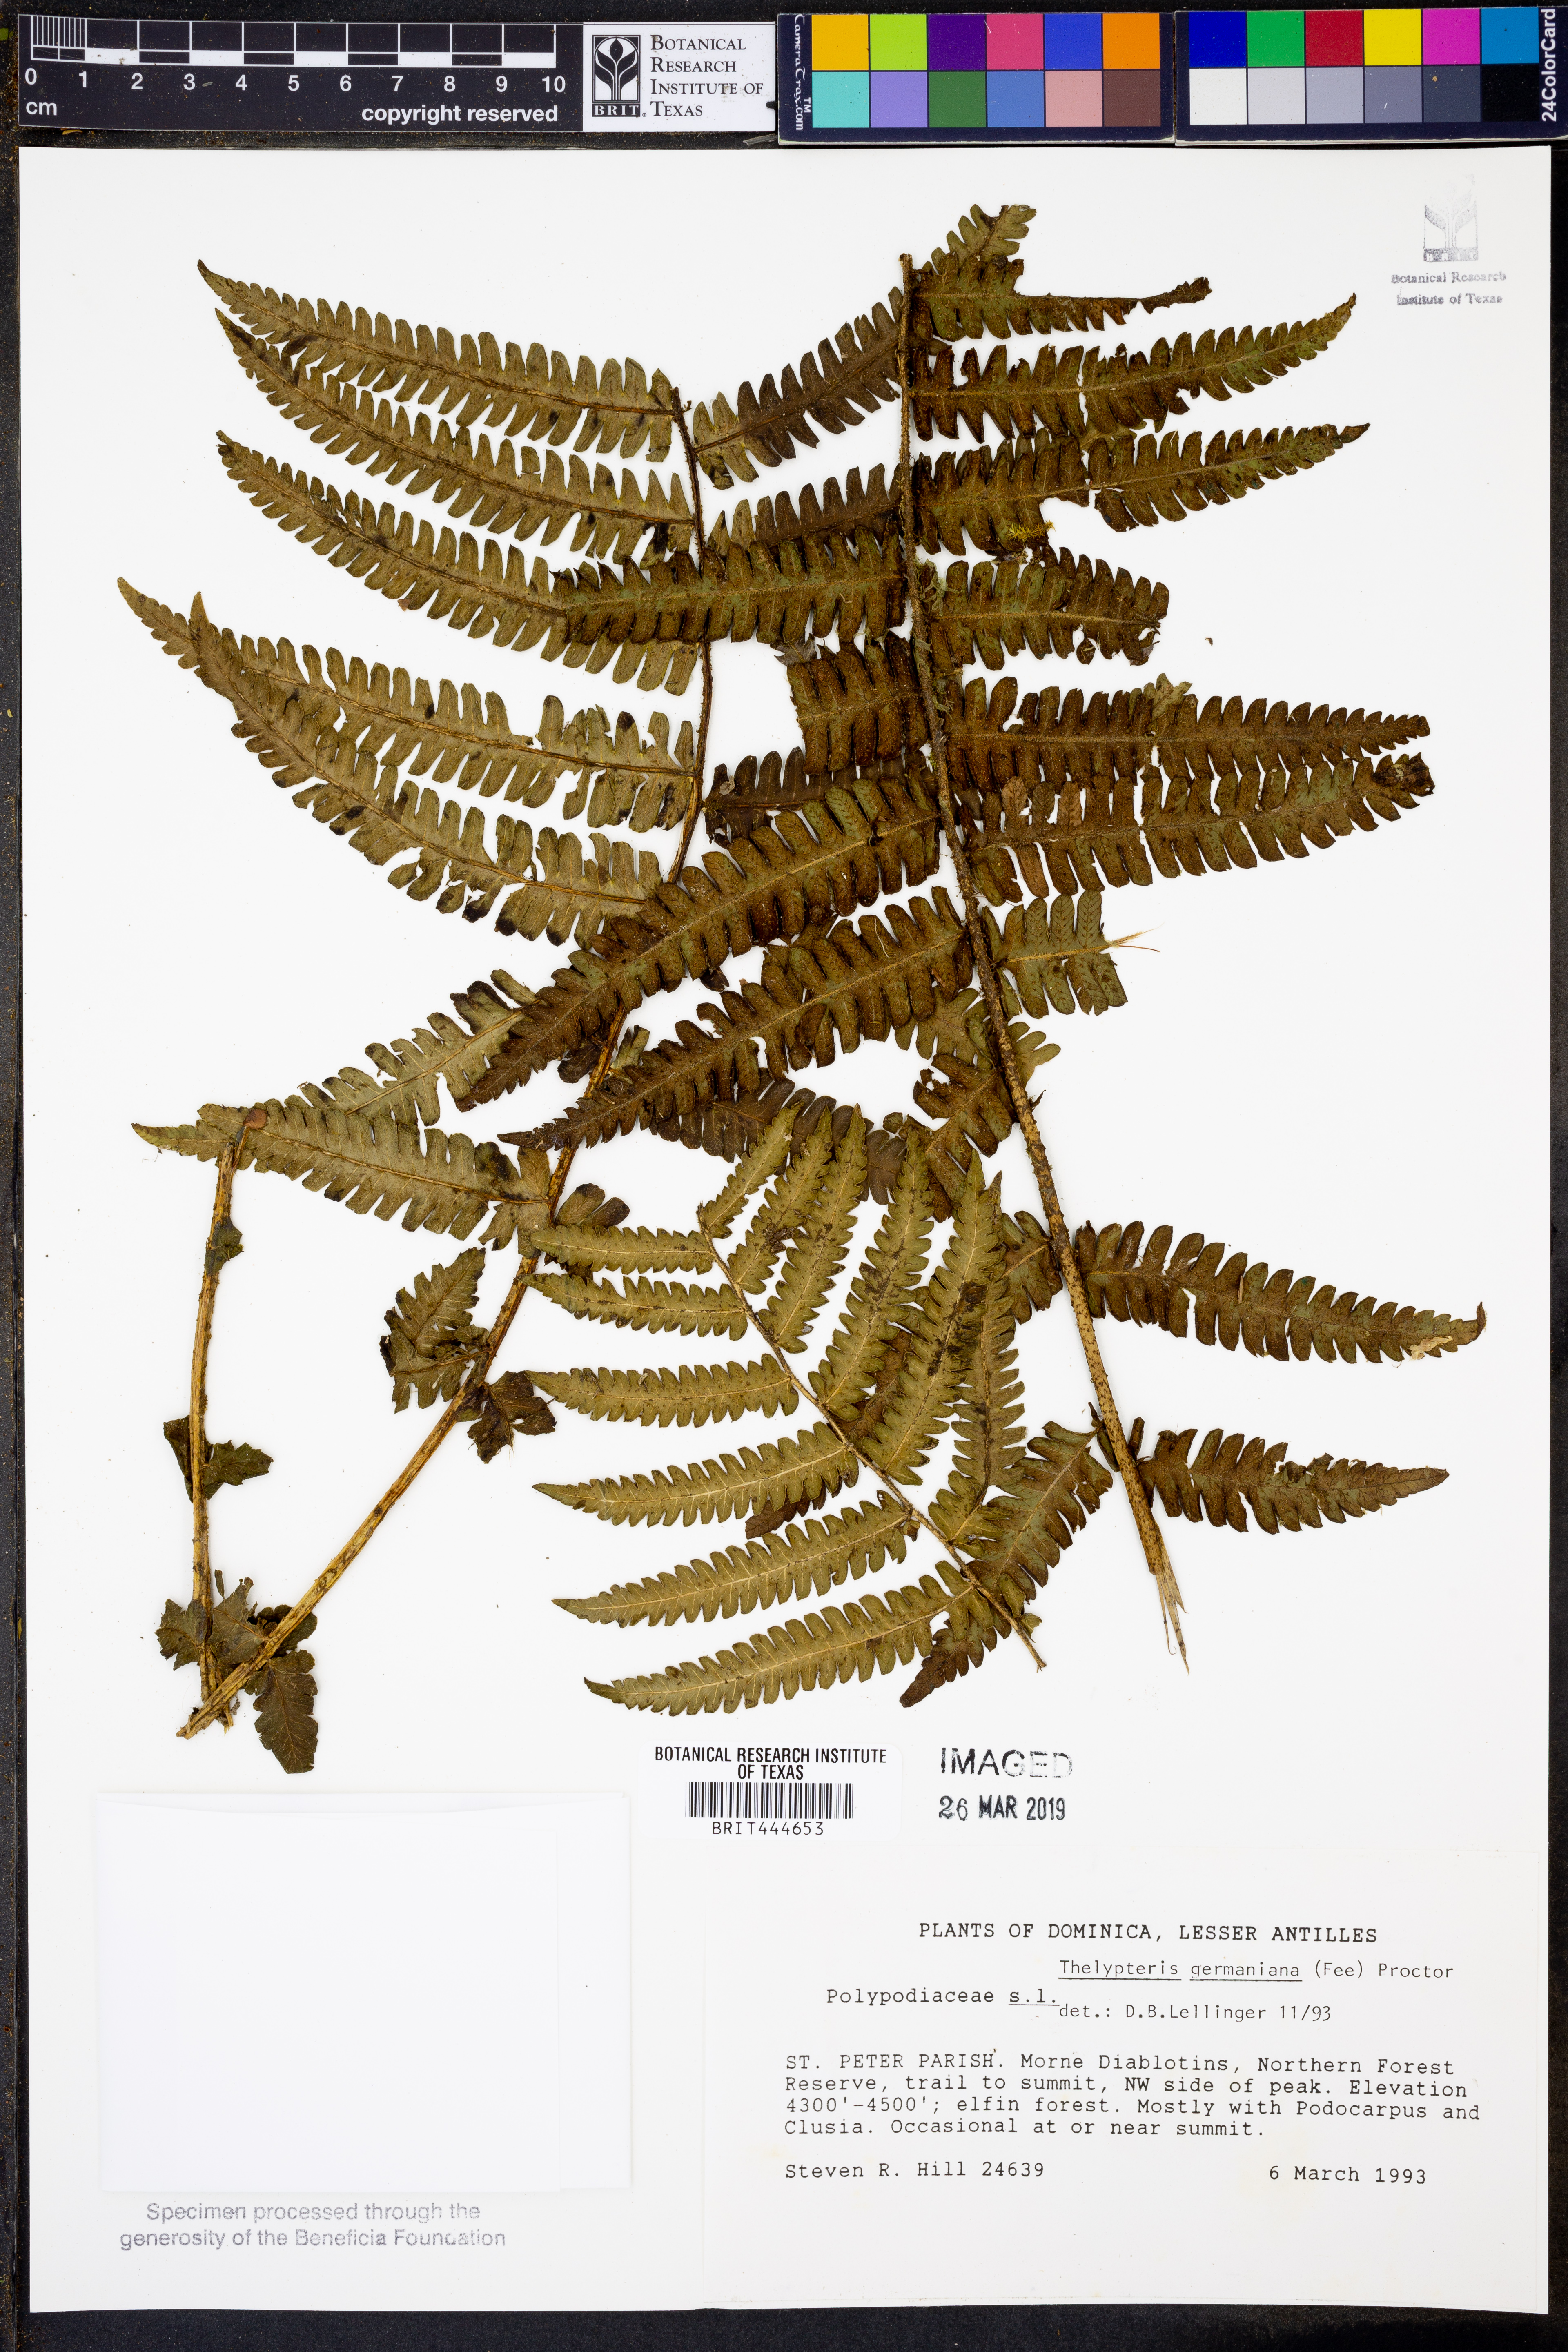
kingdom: Plantae
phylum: Tracheophyta
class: Polypodiopsida
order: Polypodiales
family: Thelypteridaceae
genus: Amauropelta
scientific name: Amauropelta germaniana
